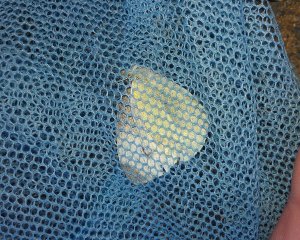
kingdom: Animalia
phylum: Arthropoda
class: Insecta
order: Lepidoptera
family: Pieridae
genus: Pieris
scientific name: Pieris rapae
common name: Cabbage White
